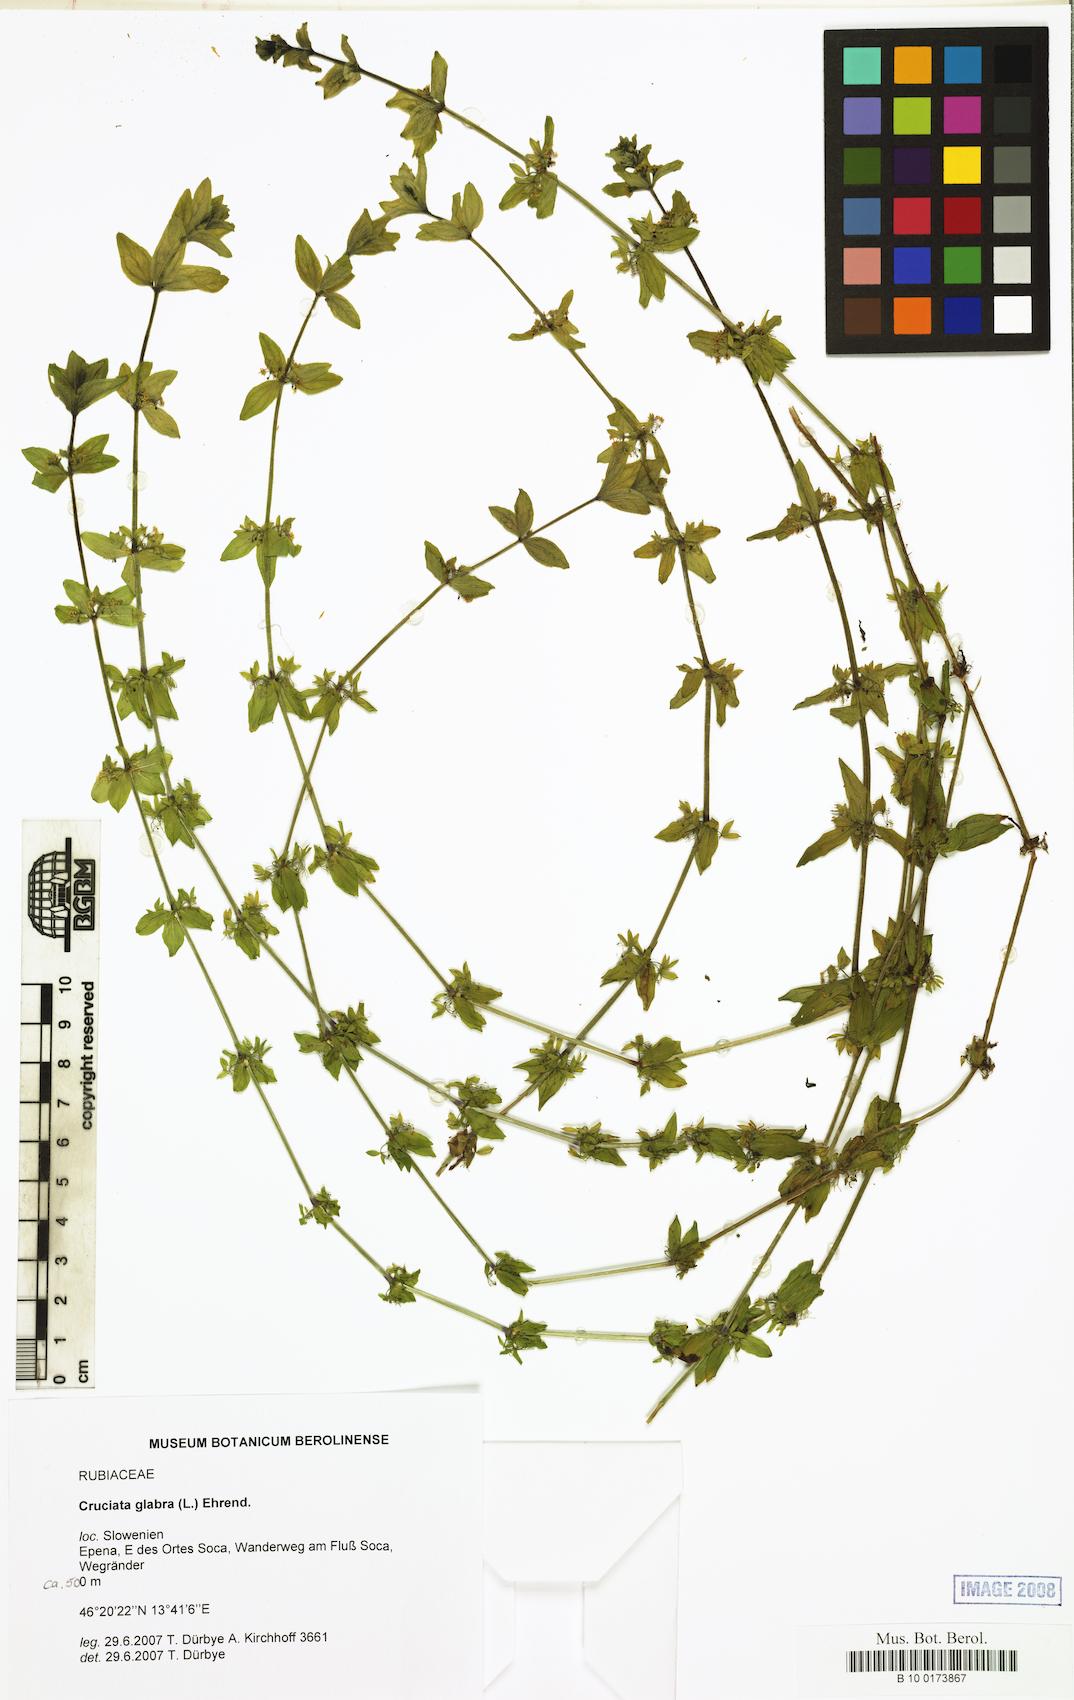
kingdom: Plantae
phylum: Tracheophyta
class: Magnoliopsida
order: Gentianales
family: Rubiaceae
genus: Cruciata
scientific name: Cruciata glabra
